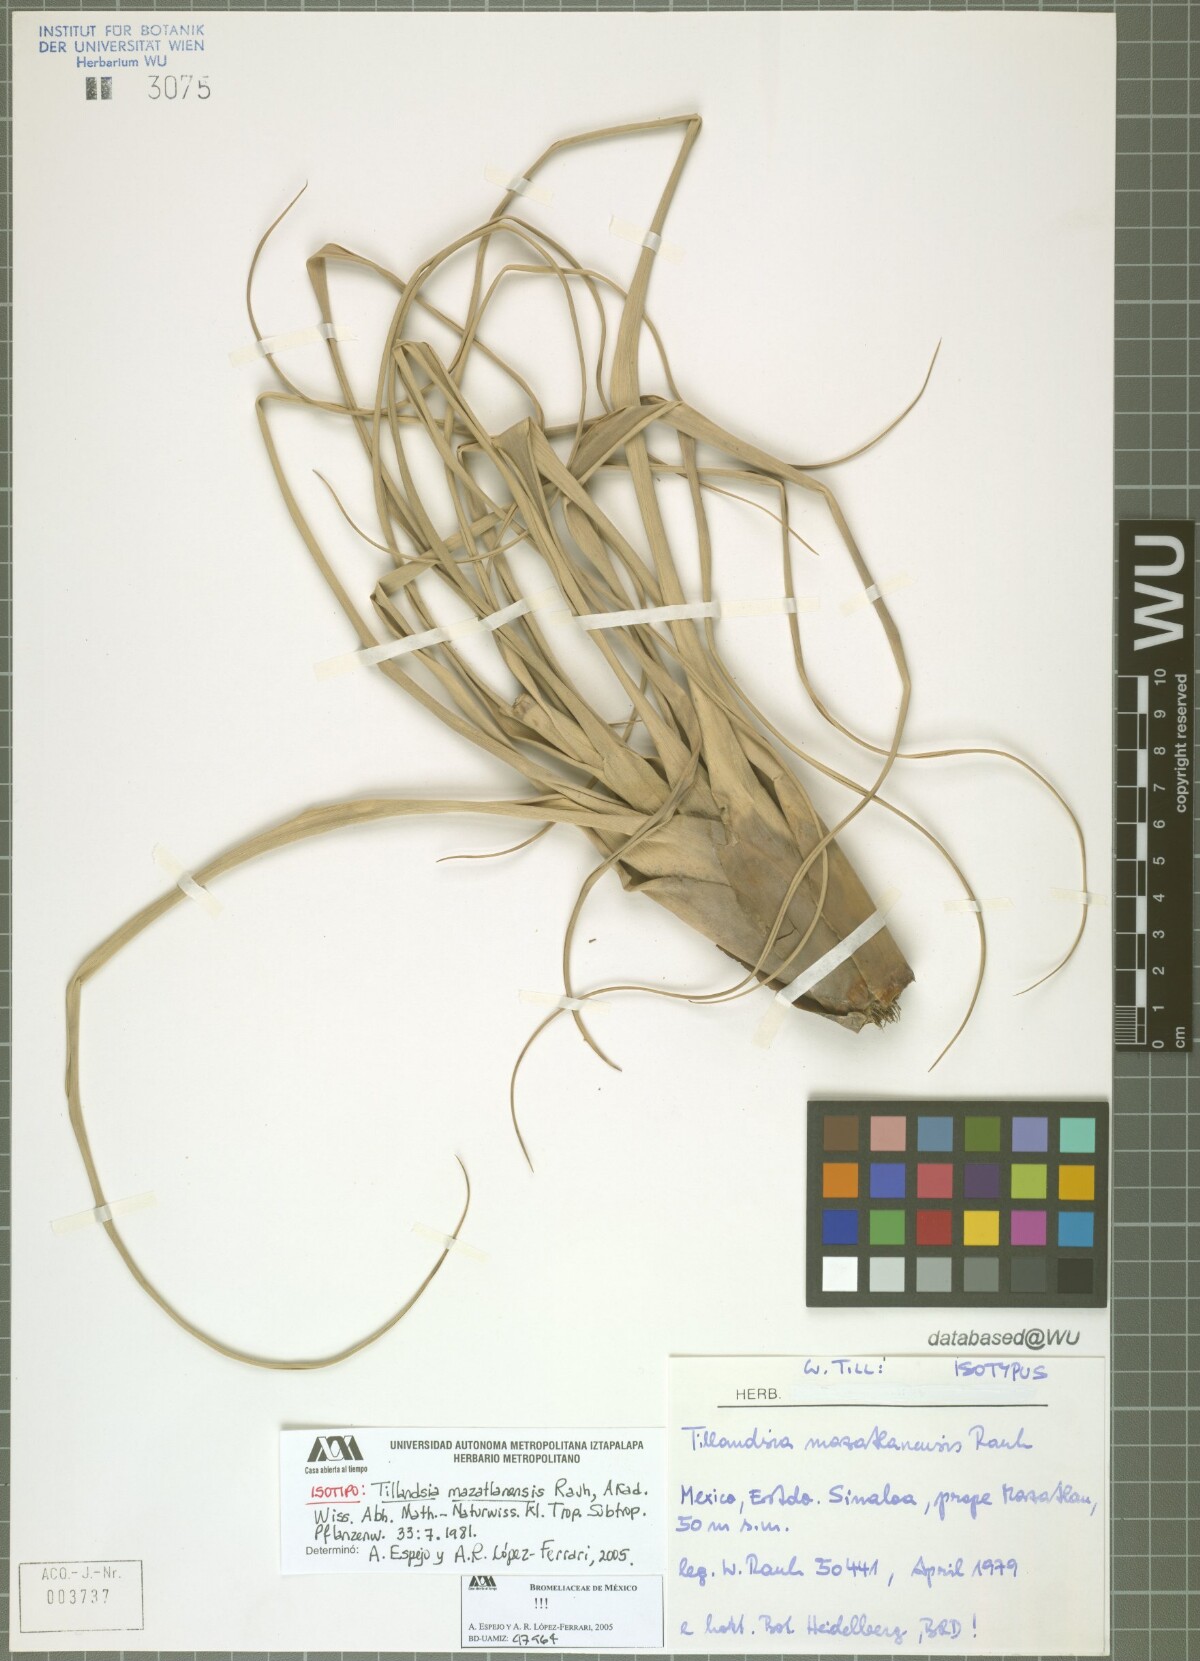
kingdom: Plantae
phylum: Tracheophyta
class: Liliopsida
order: Poales
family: Bromeliaceae
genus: Tillandsia
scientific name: Tillandsia mazatlanensis
